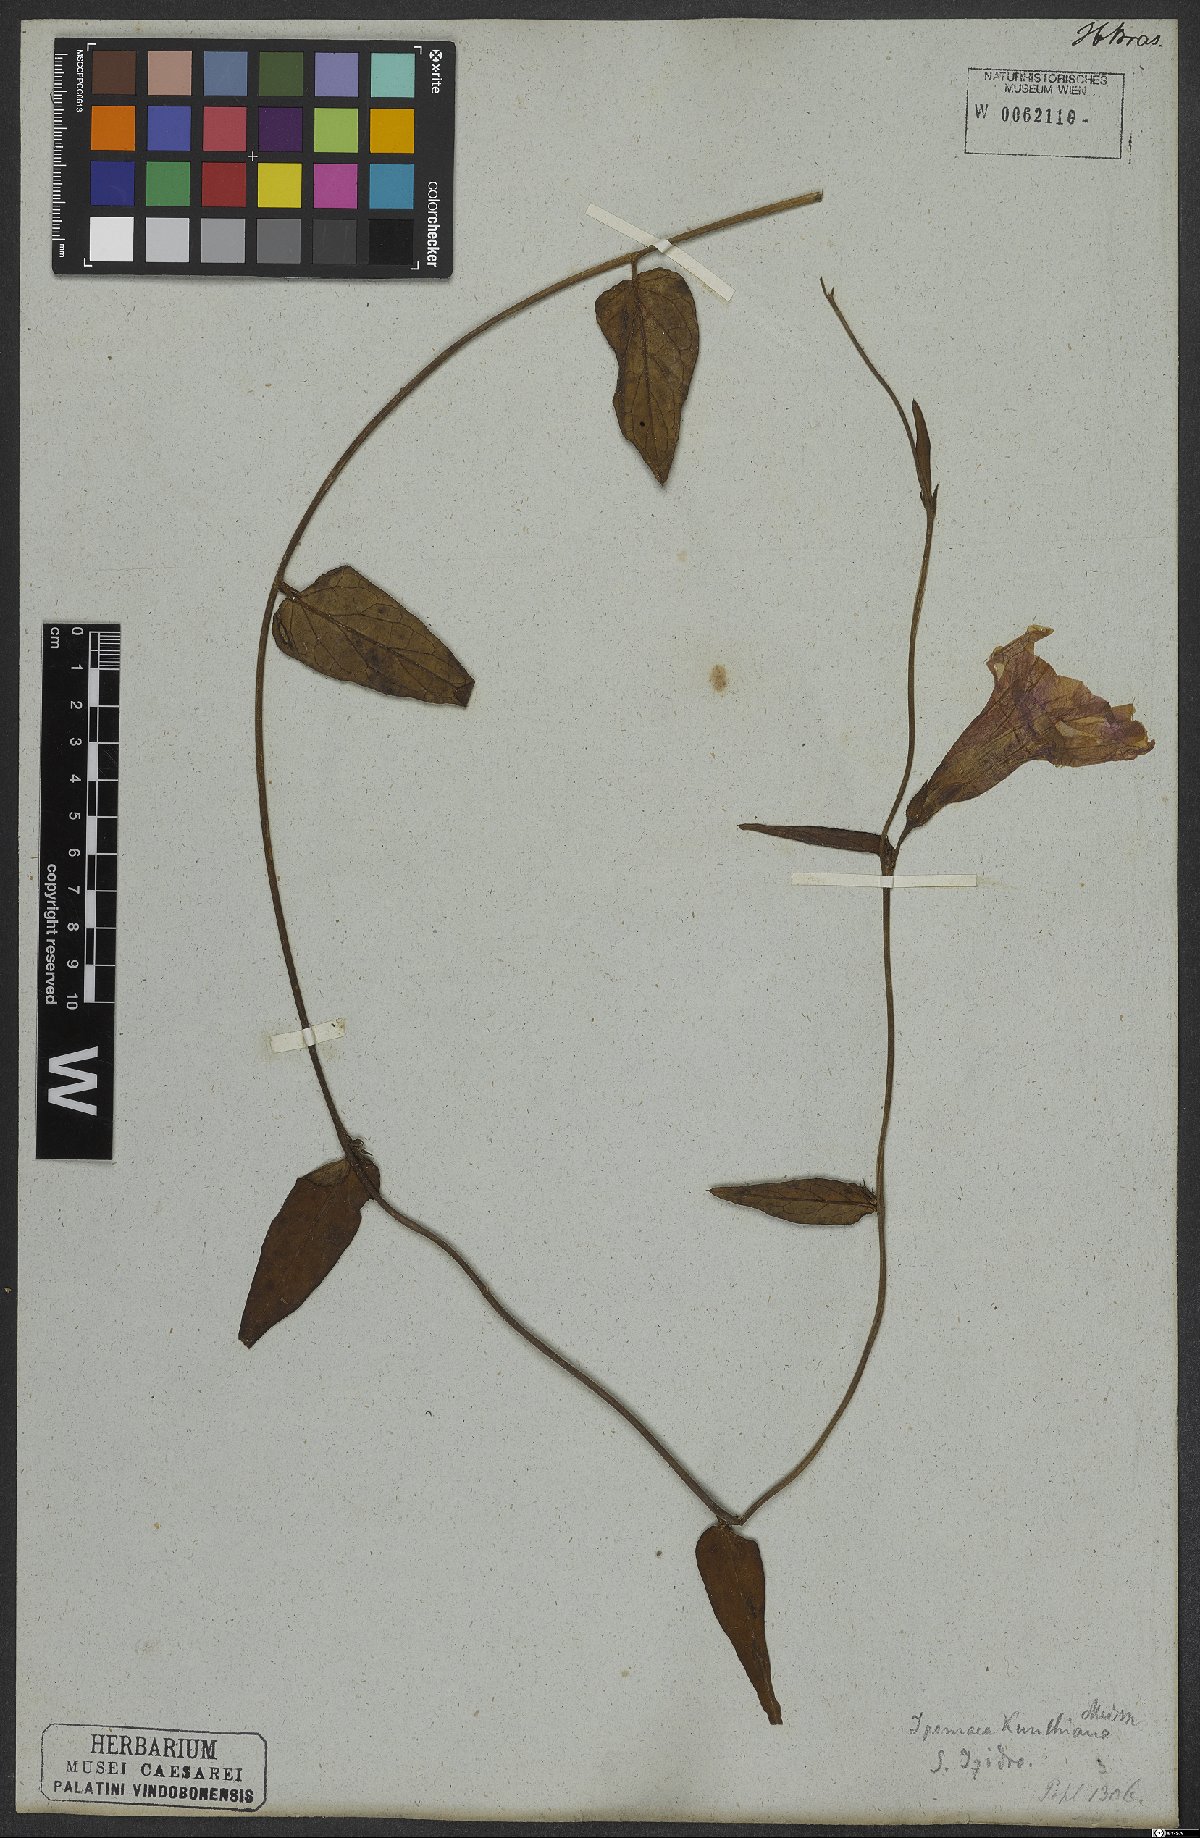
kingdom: Plantae
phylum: Tracheophyta
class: Magnoliopsida
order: Solanales
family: Convolvulaceae
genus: Ipomoea
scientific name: Ipomoea procumbens
